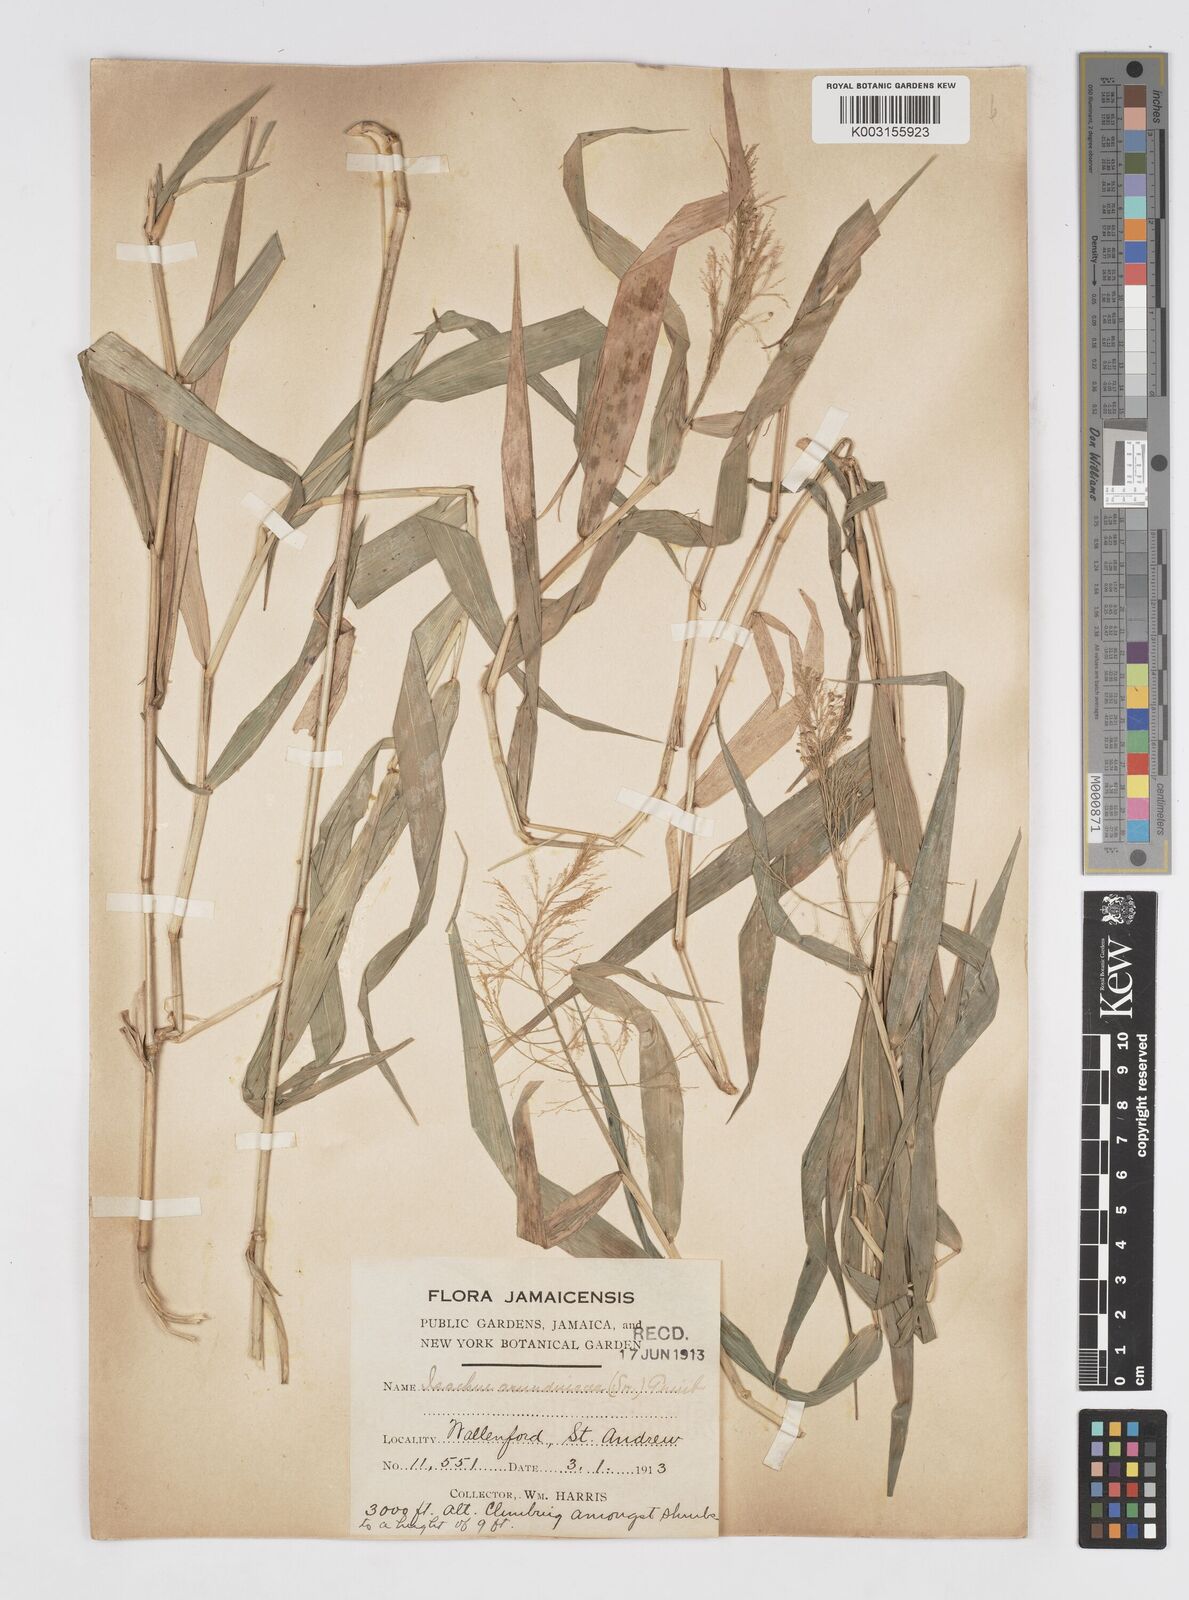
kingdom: Plantae
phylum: Tracheophyta
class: Liliopsida
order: Poales
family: Poaceae
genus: Isachne
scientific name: Isachne arundinacea
